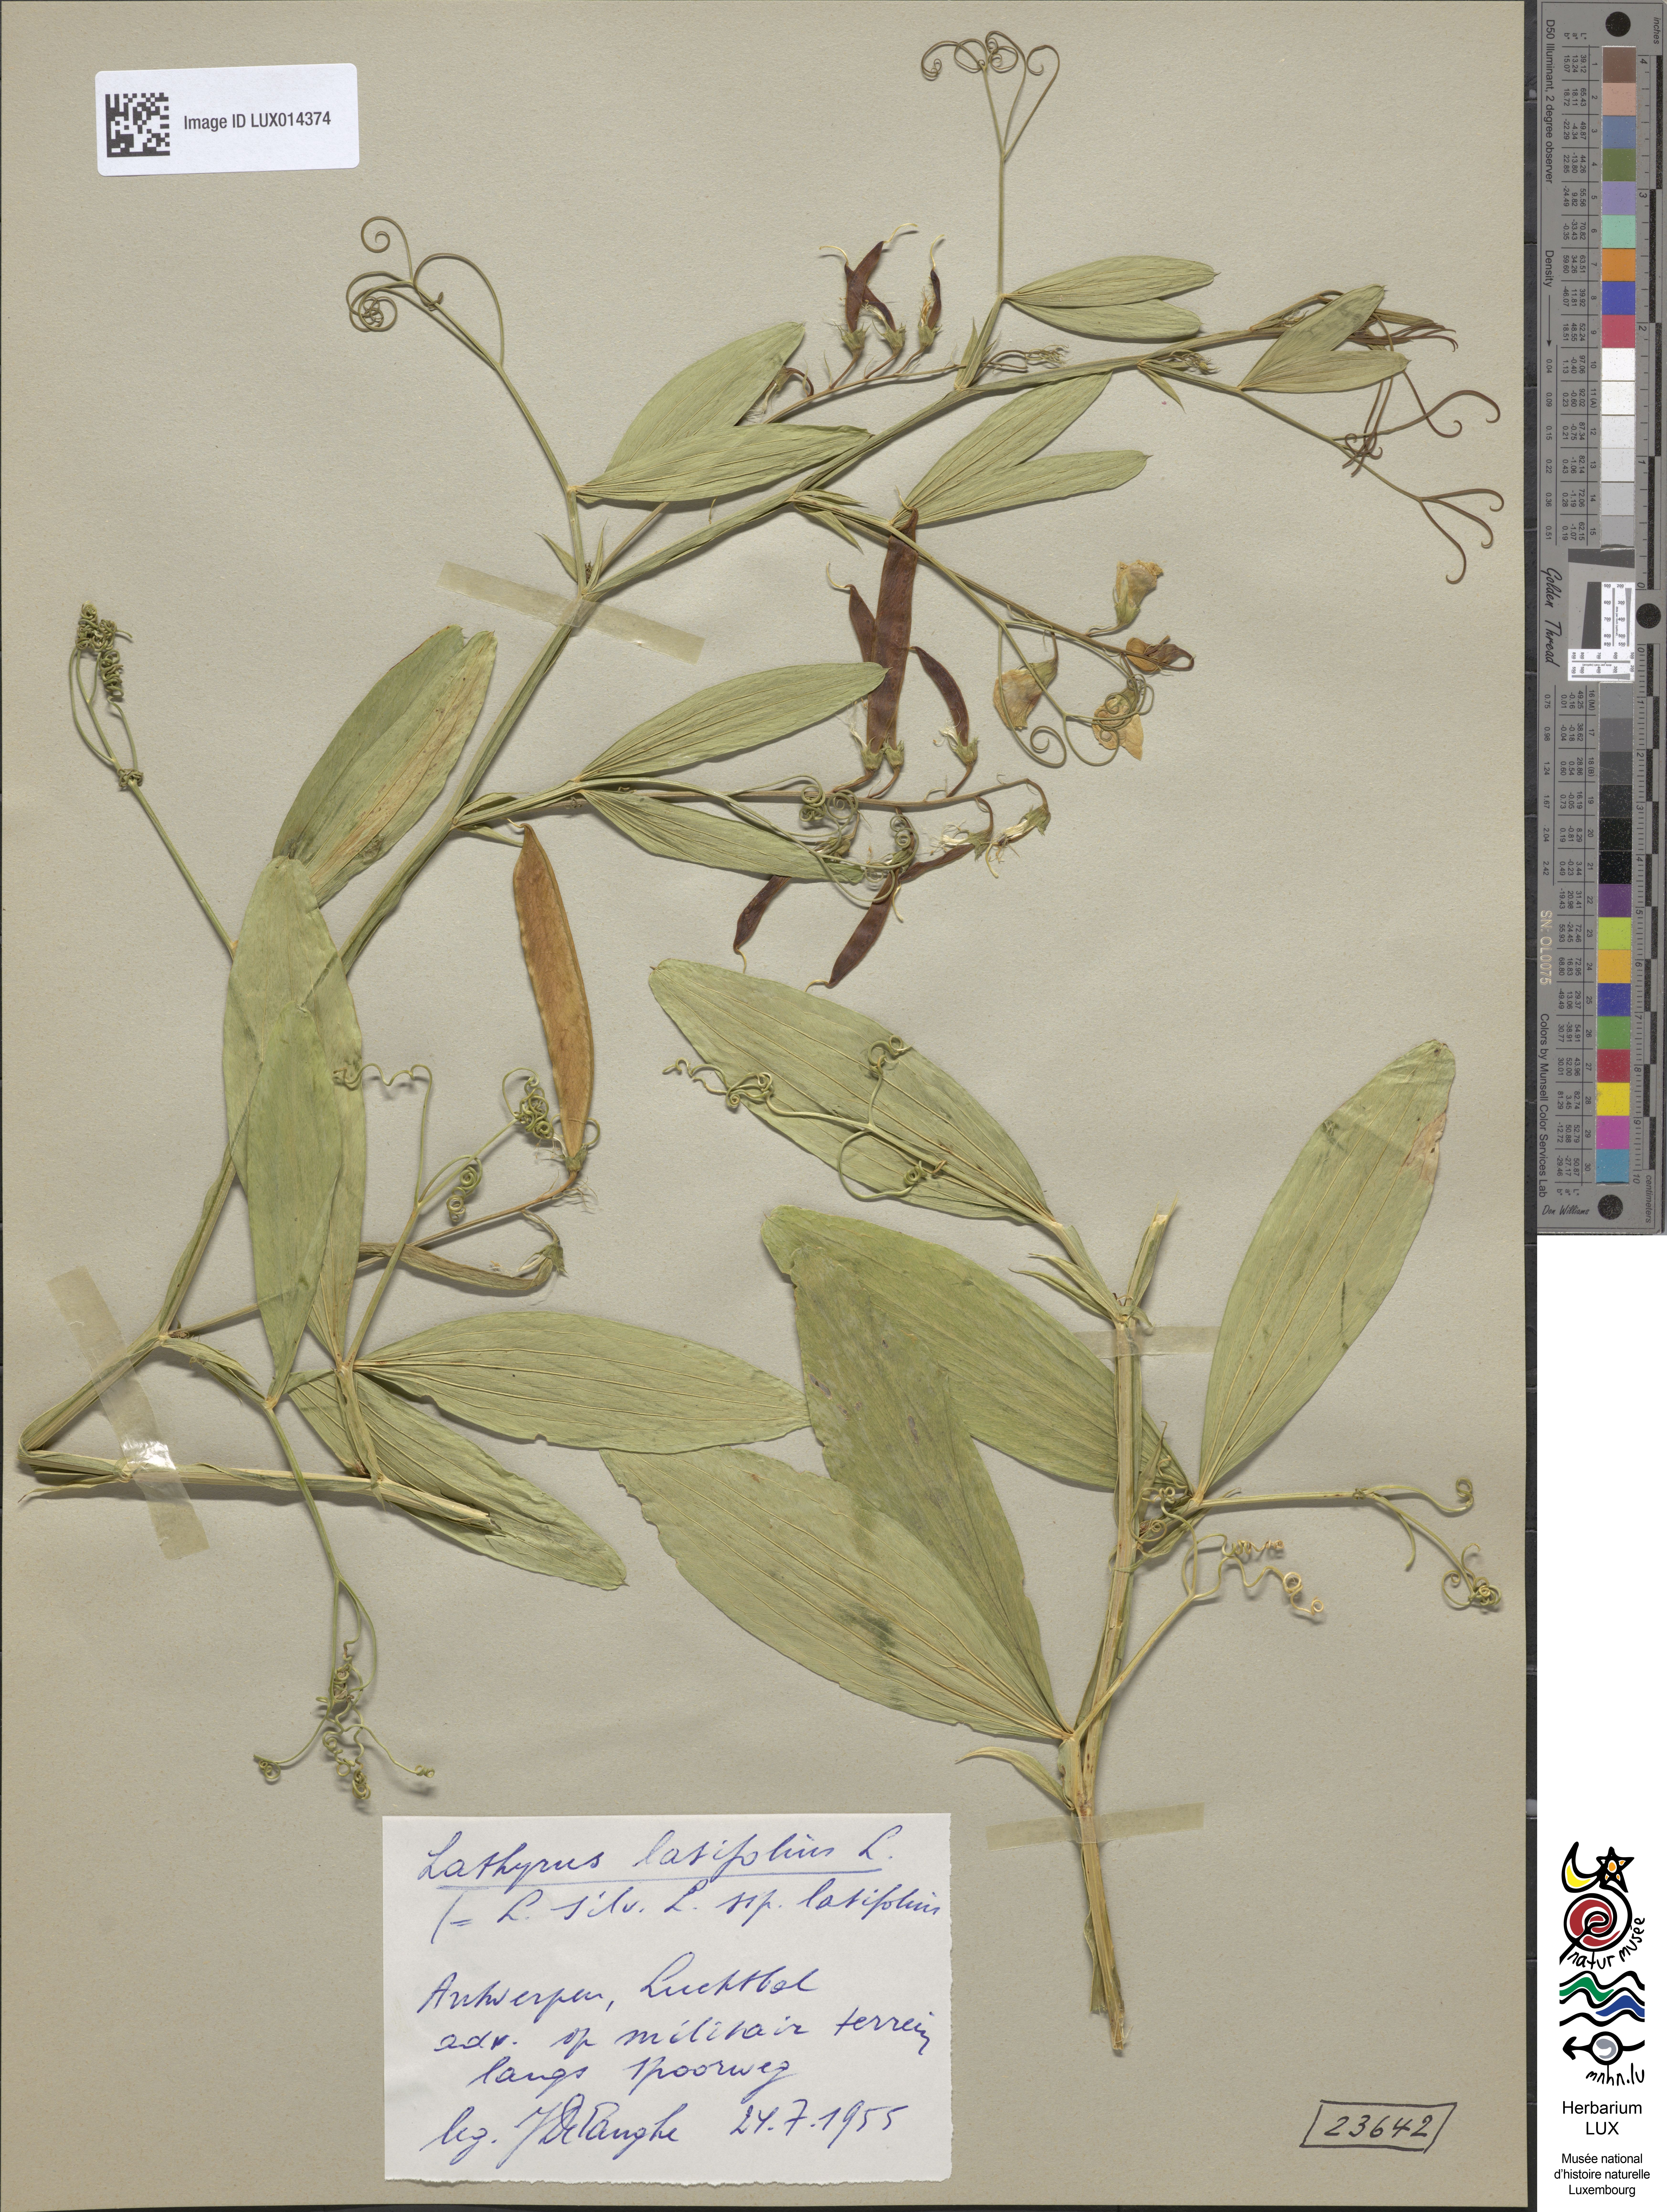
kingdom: Plantae
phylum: Tracheophyta
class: Magnoliopsida
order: Fabales
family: Fabaceae
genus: Lathyrus
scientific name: Lathyrus latifolius
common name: Perennial pea
